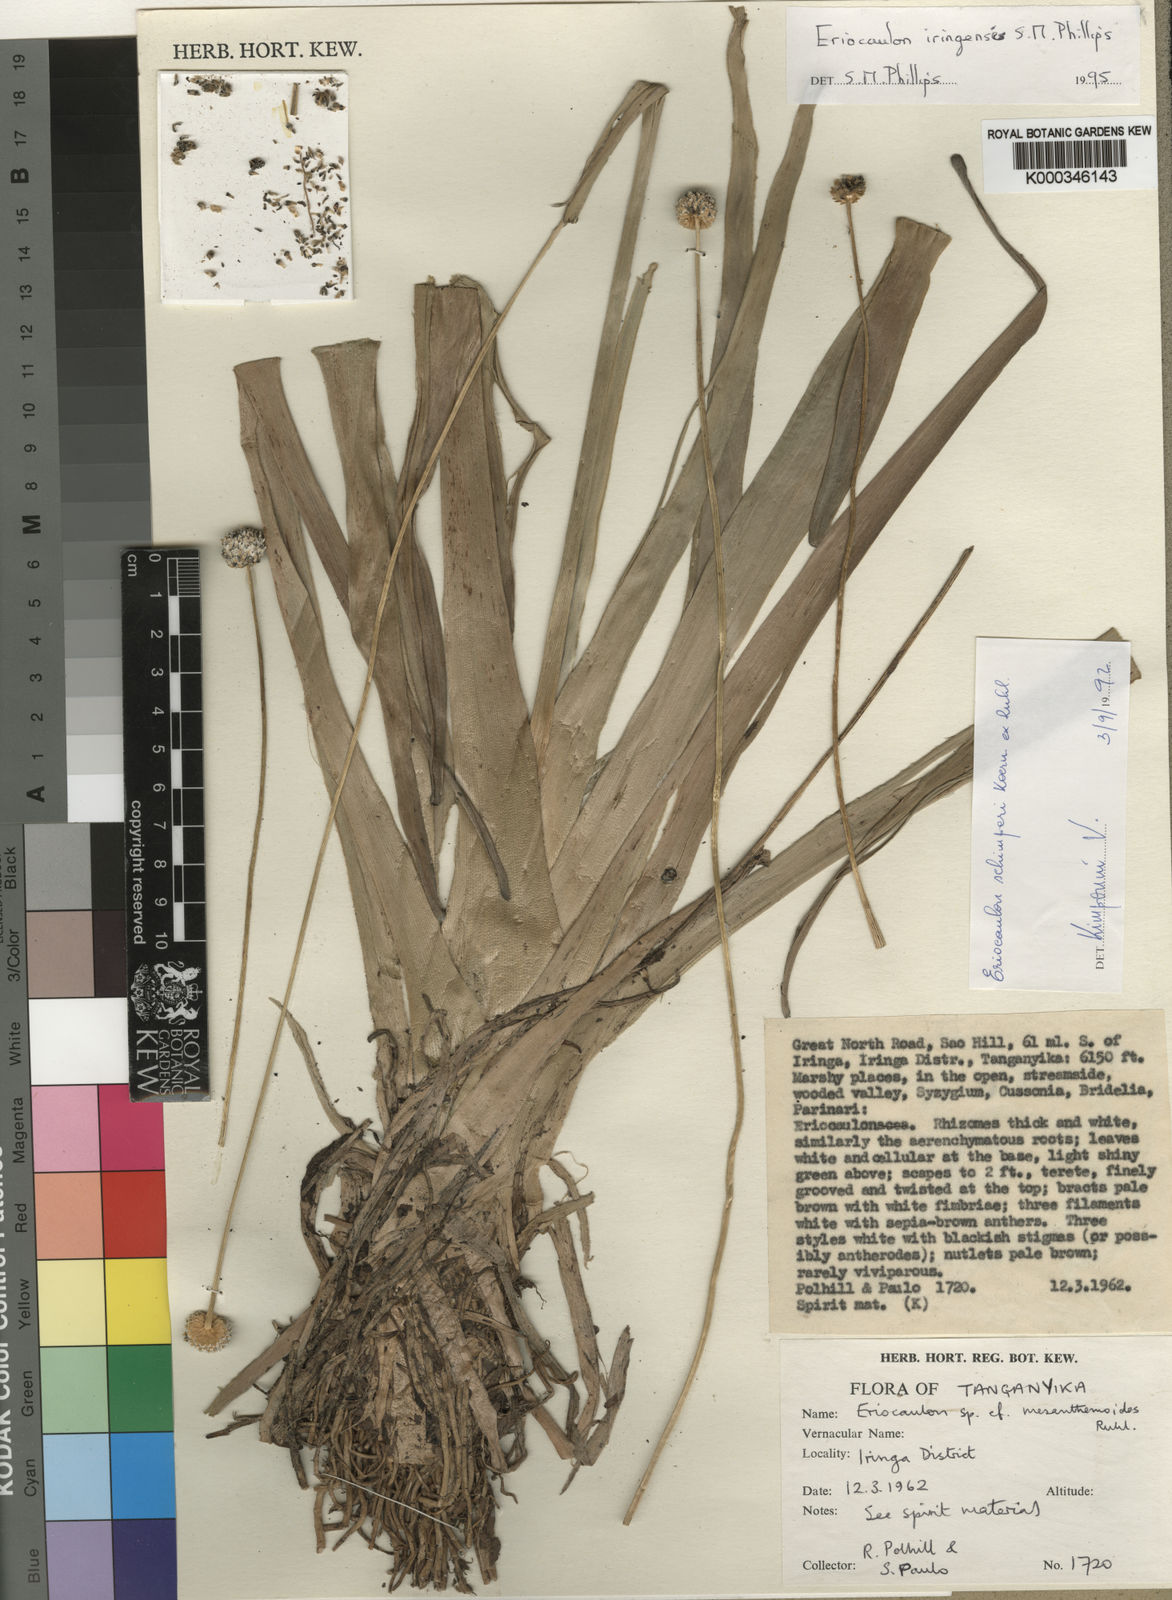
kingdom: Plantae
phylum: Tracheophyta
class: Liliopsida
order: Poales
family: Eriocaulaceae
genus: Eriocaulon
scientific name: Eriocaulon iringense
